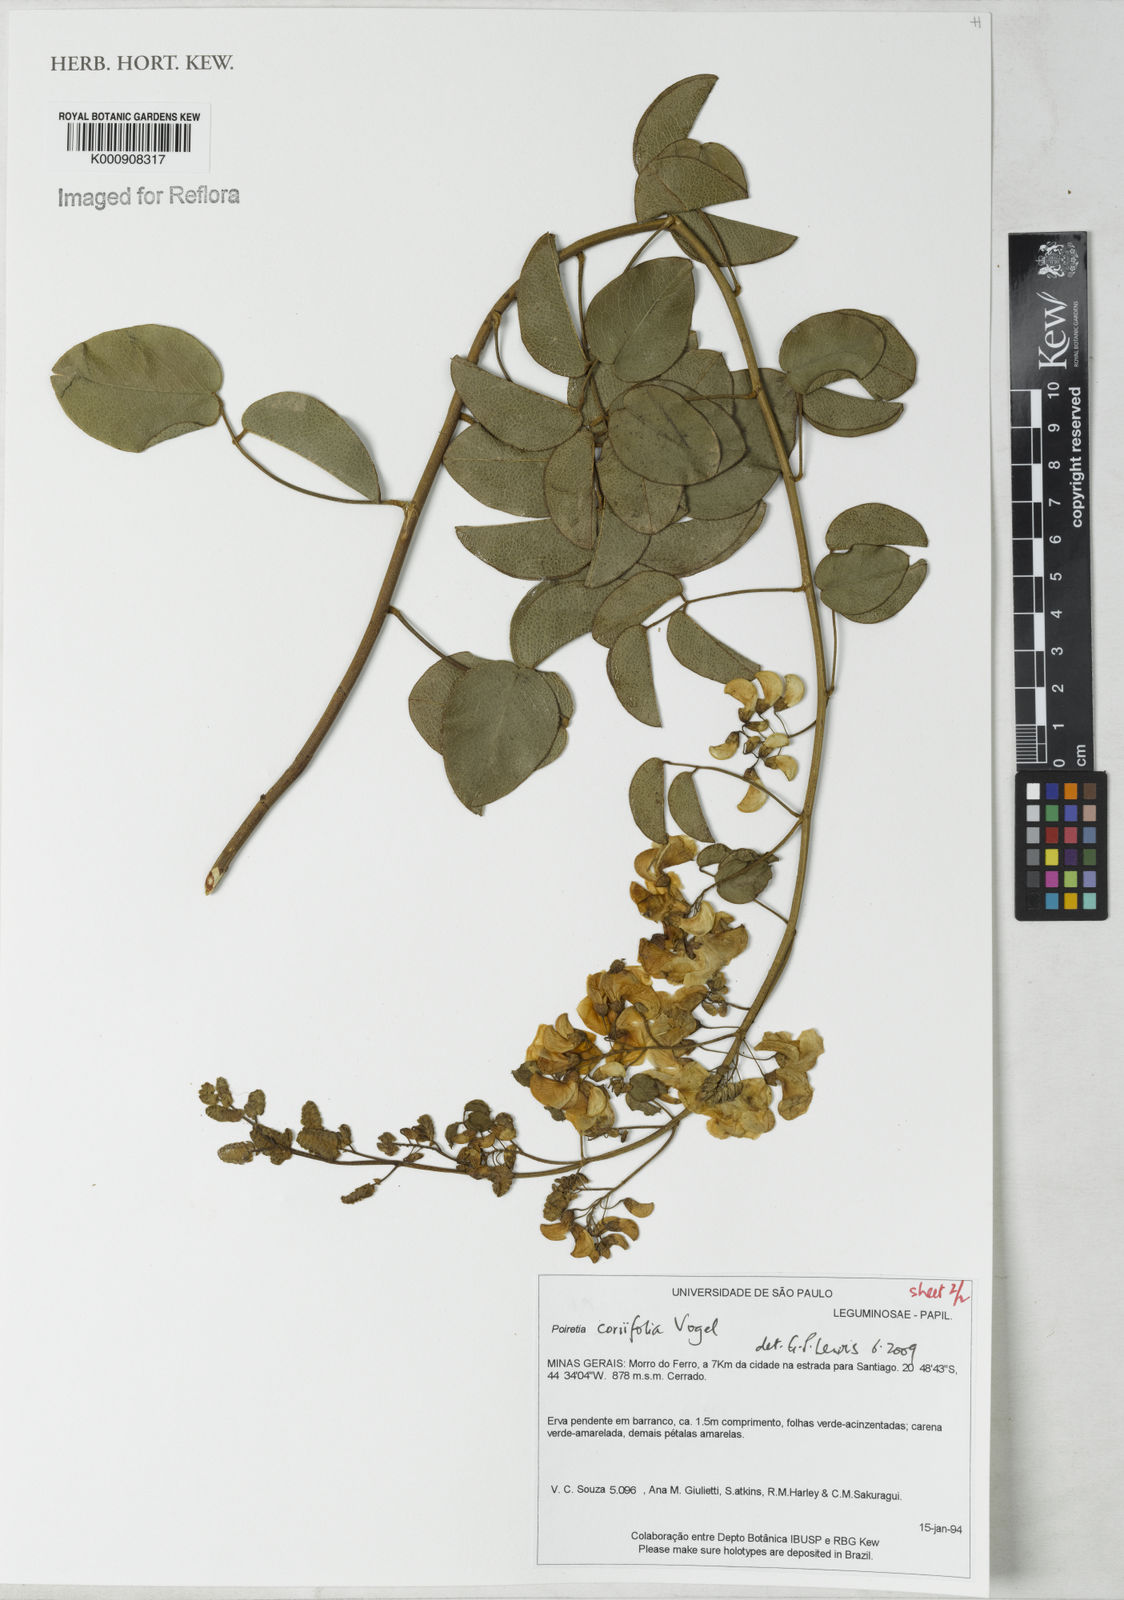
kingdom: Plantae
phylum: Tracheophyta
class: Magnoliopsida
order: Fabales
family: Fabaceae
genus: Poiretia
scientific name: Poiretia coriifolia
